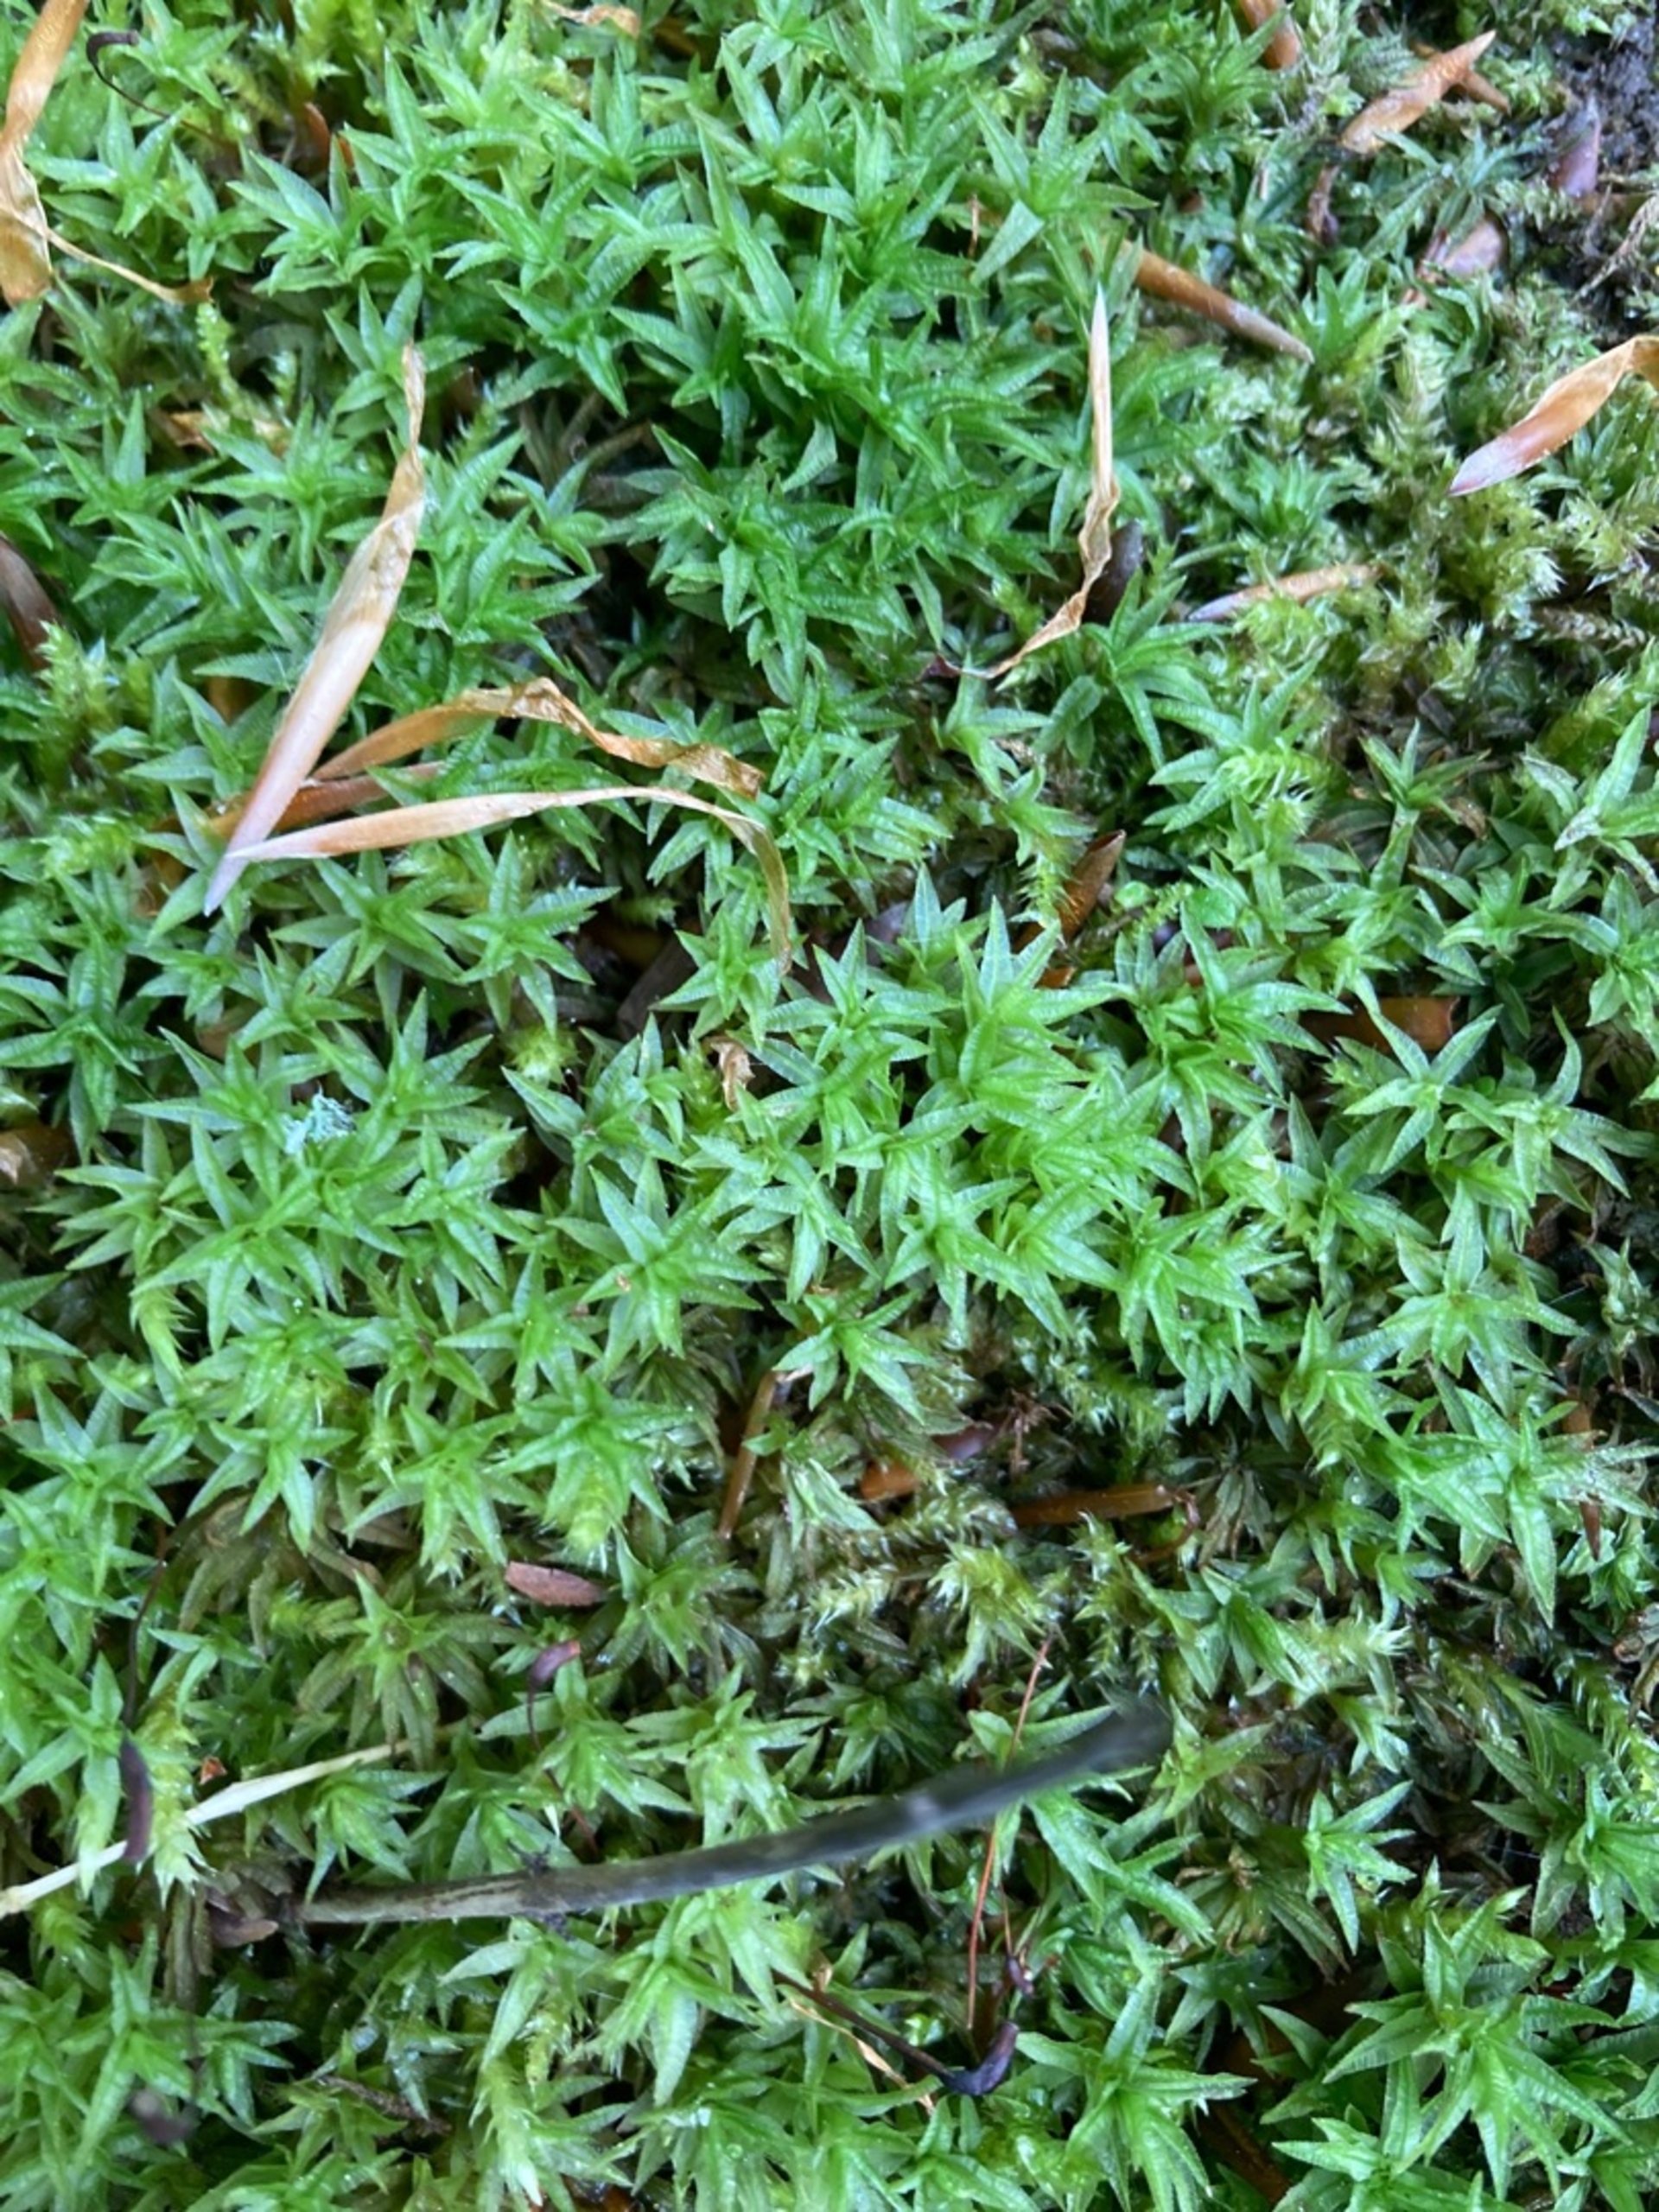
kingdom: Plantae
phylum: Bryophyta
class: Polytrichopsida
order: Polytrichales
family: Polytrichaceae
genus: Atrichum
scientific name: Atrichum undulatum
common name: Bølget katrinemos
